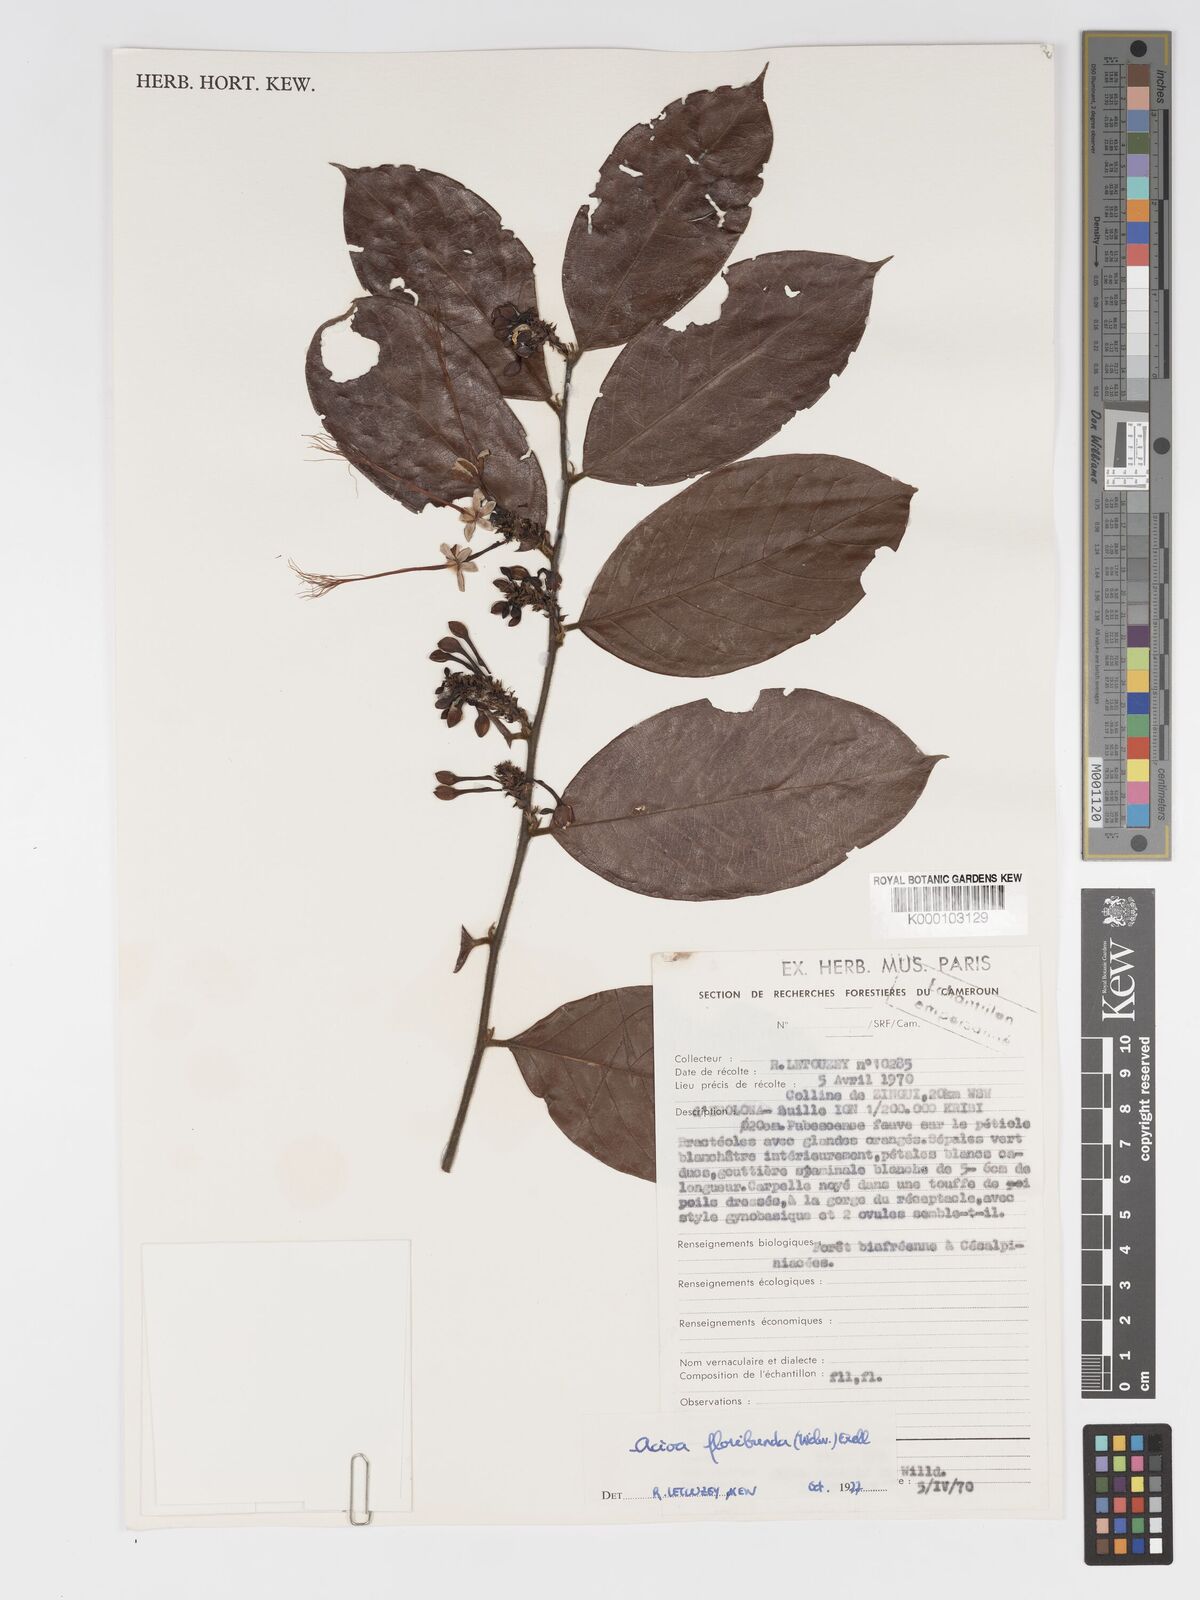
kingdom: Plantae
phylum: Tracheophyta
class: Magnoliopsida
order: Malpighiales
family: Chrysobalanaceae
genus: Dactyladenia
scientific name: Dactyladenia floribunda
